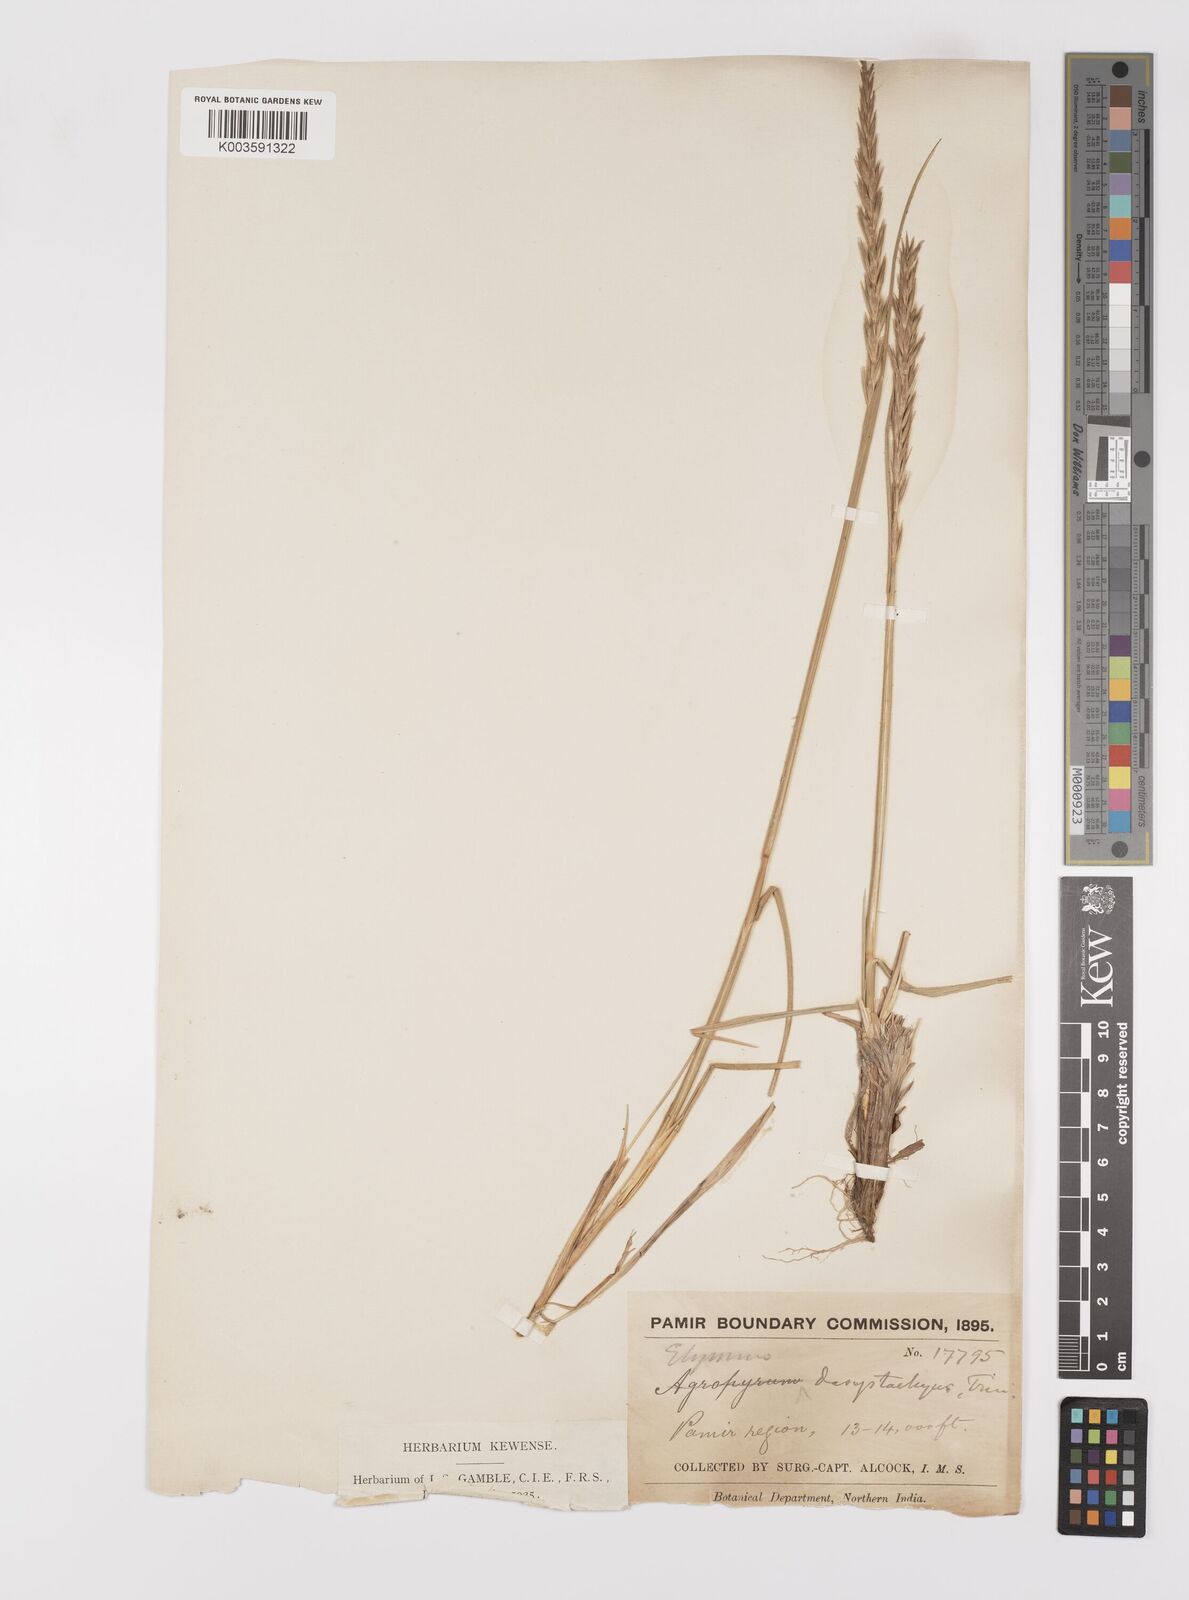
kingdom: Plantae
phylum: Tracheophyta
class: Liliopsida
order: Poales
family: Poaceae
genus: Leymus
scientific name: Leymus secalinus
